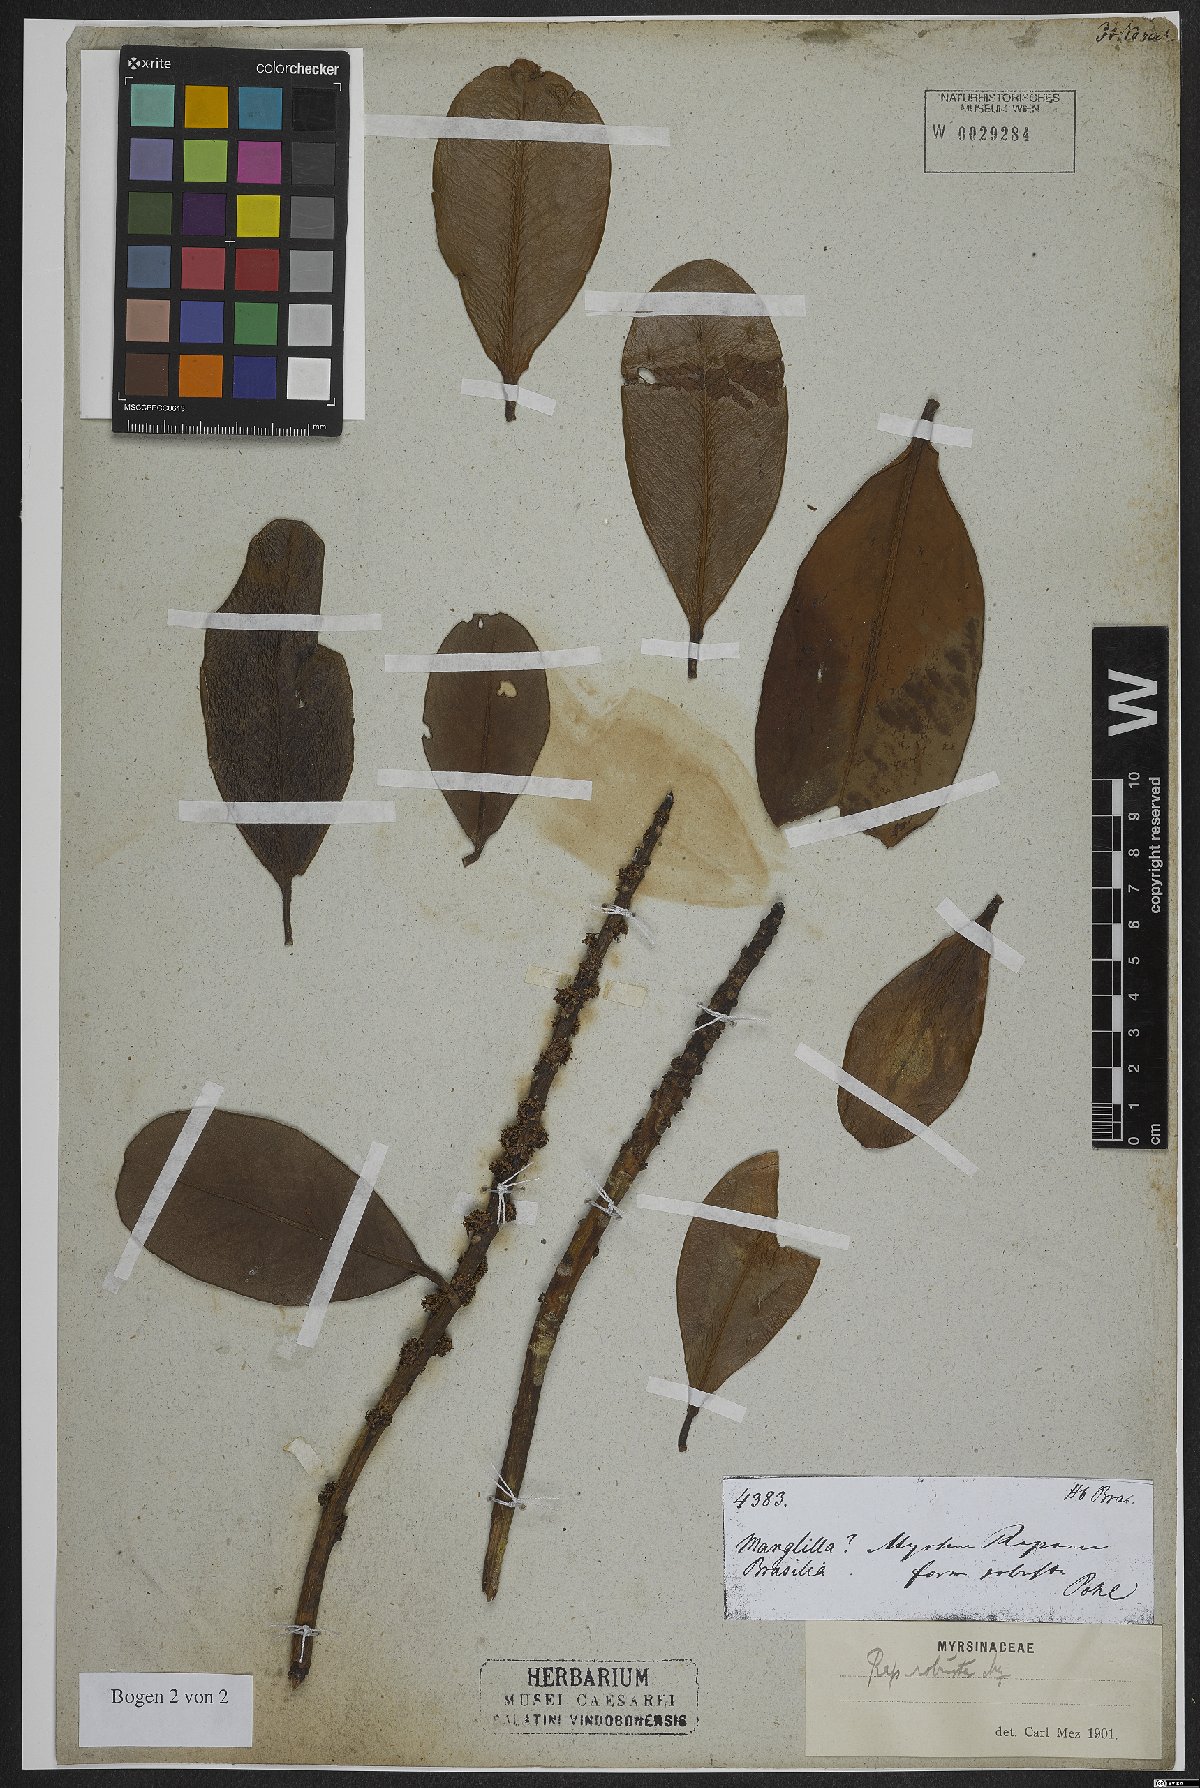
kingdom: Plantae
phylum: Tracheophyta
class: Magnoliopsida
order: Ericales
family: Primulaceae
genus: Myrsine
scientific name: Myrsine robusta
